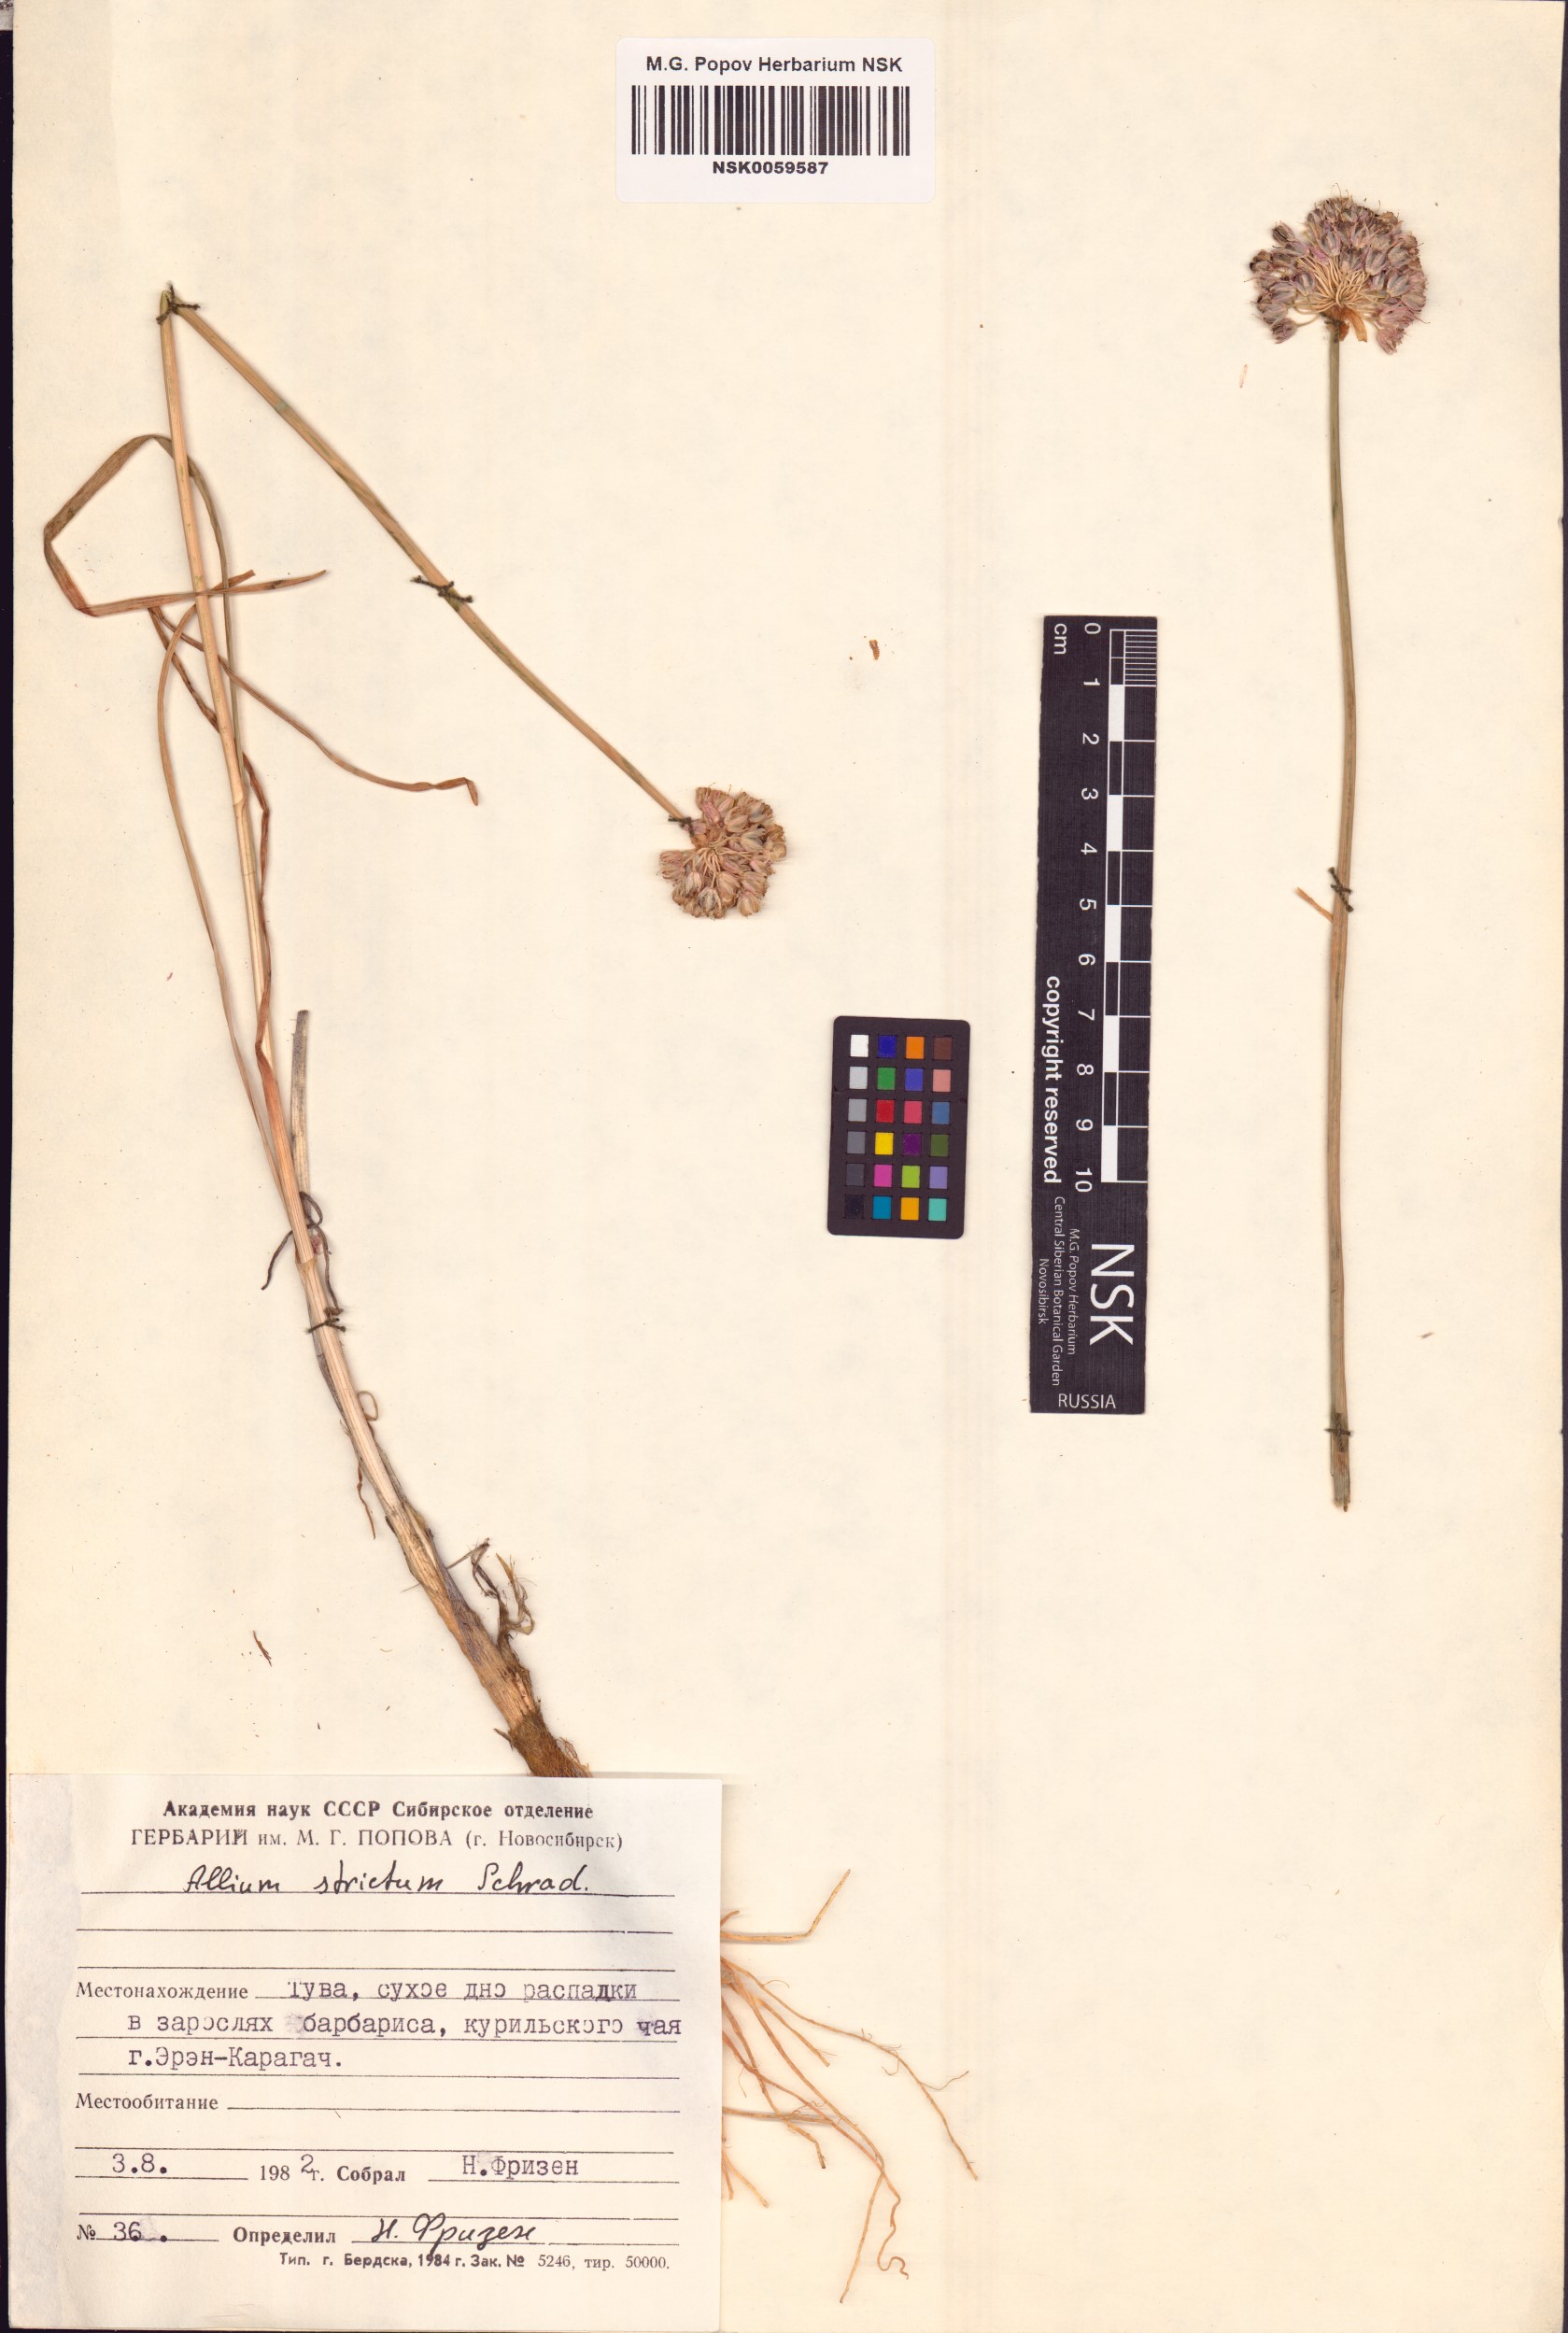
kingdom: Plantae
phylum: Tracheophyta
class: Liliopsida
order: Asparagales
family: Amaryllidaceae
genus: Allium
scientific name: Allium strictum
